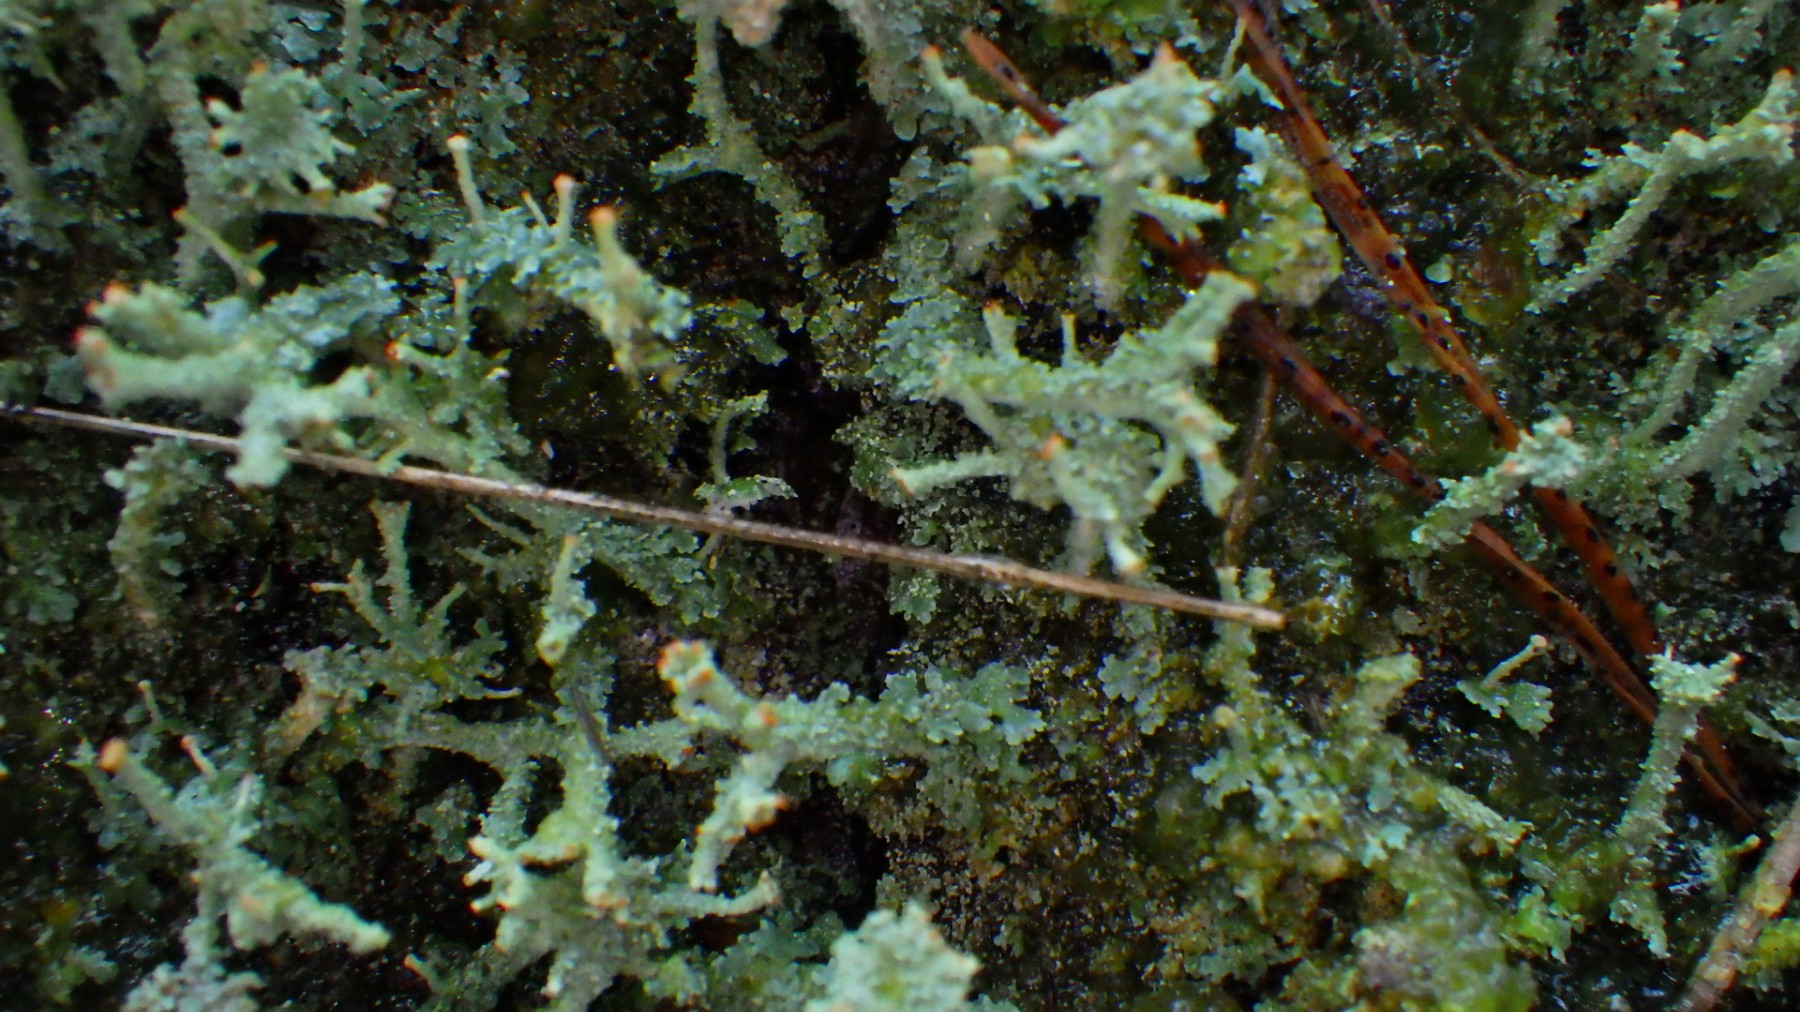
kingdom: Fungi
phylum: Ascomycota
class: Lecanoromycetes
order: Lecanorales
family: Cladoniaceae
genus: Cladonia
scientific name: Cladonia polydactyla
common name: vifte-bægerlav
